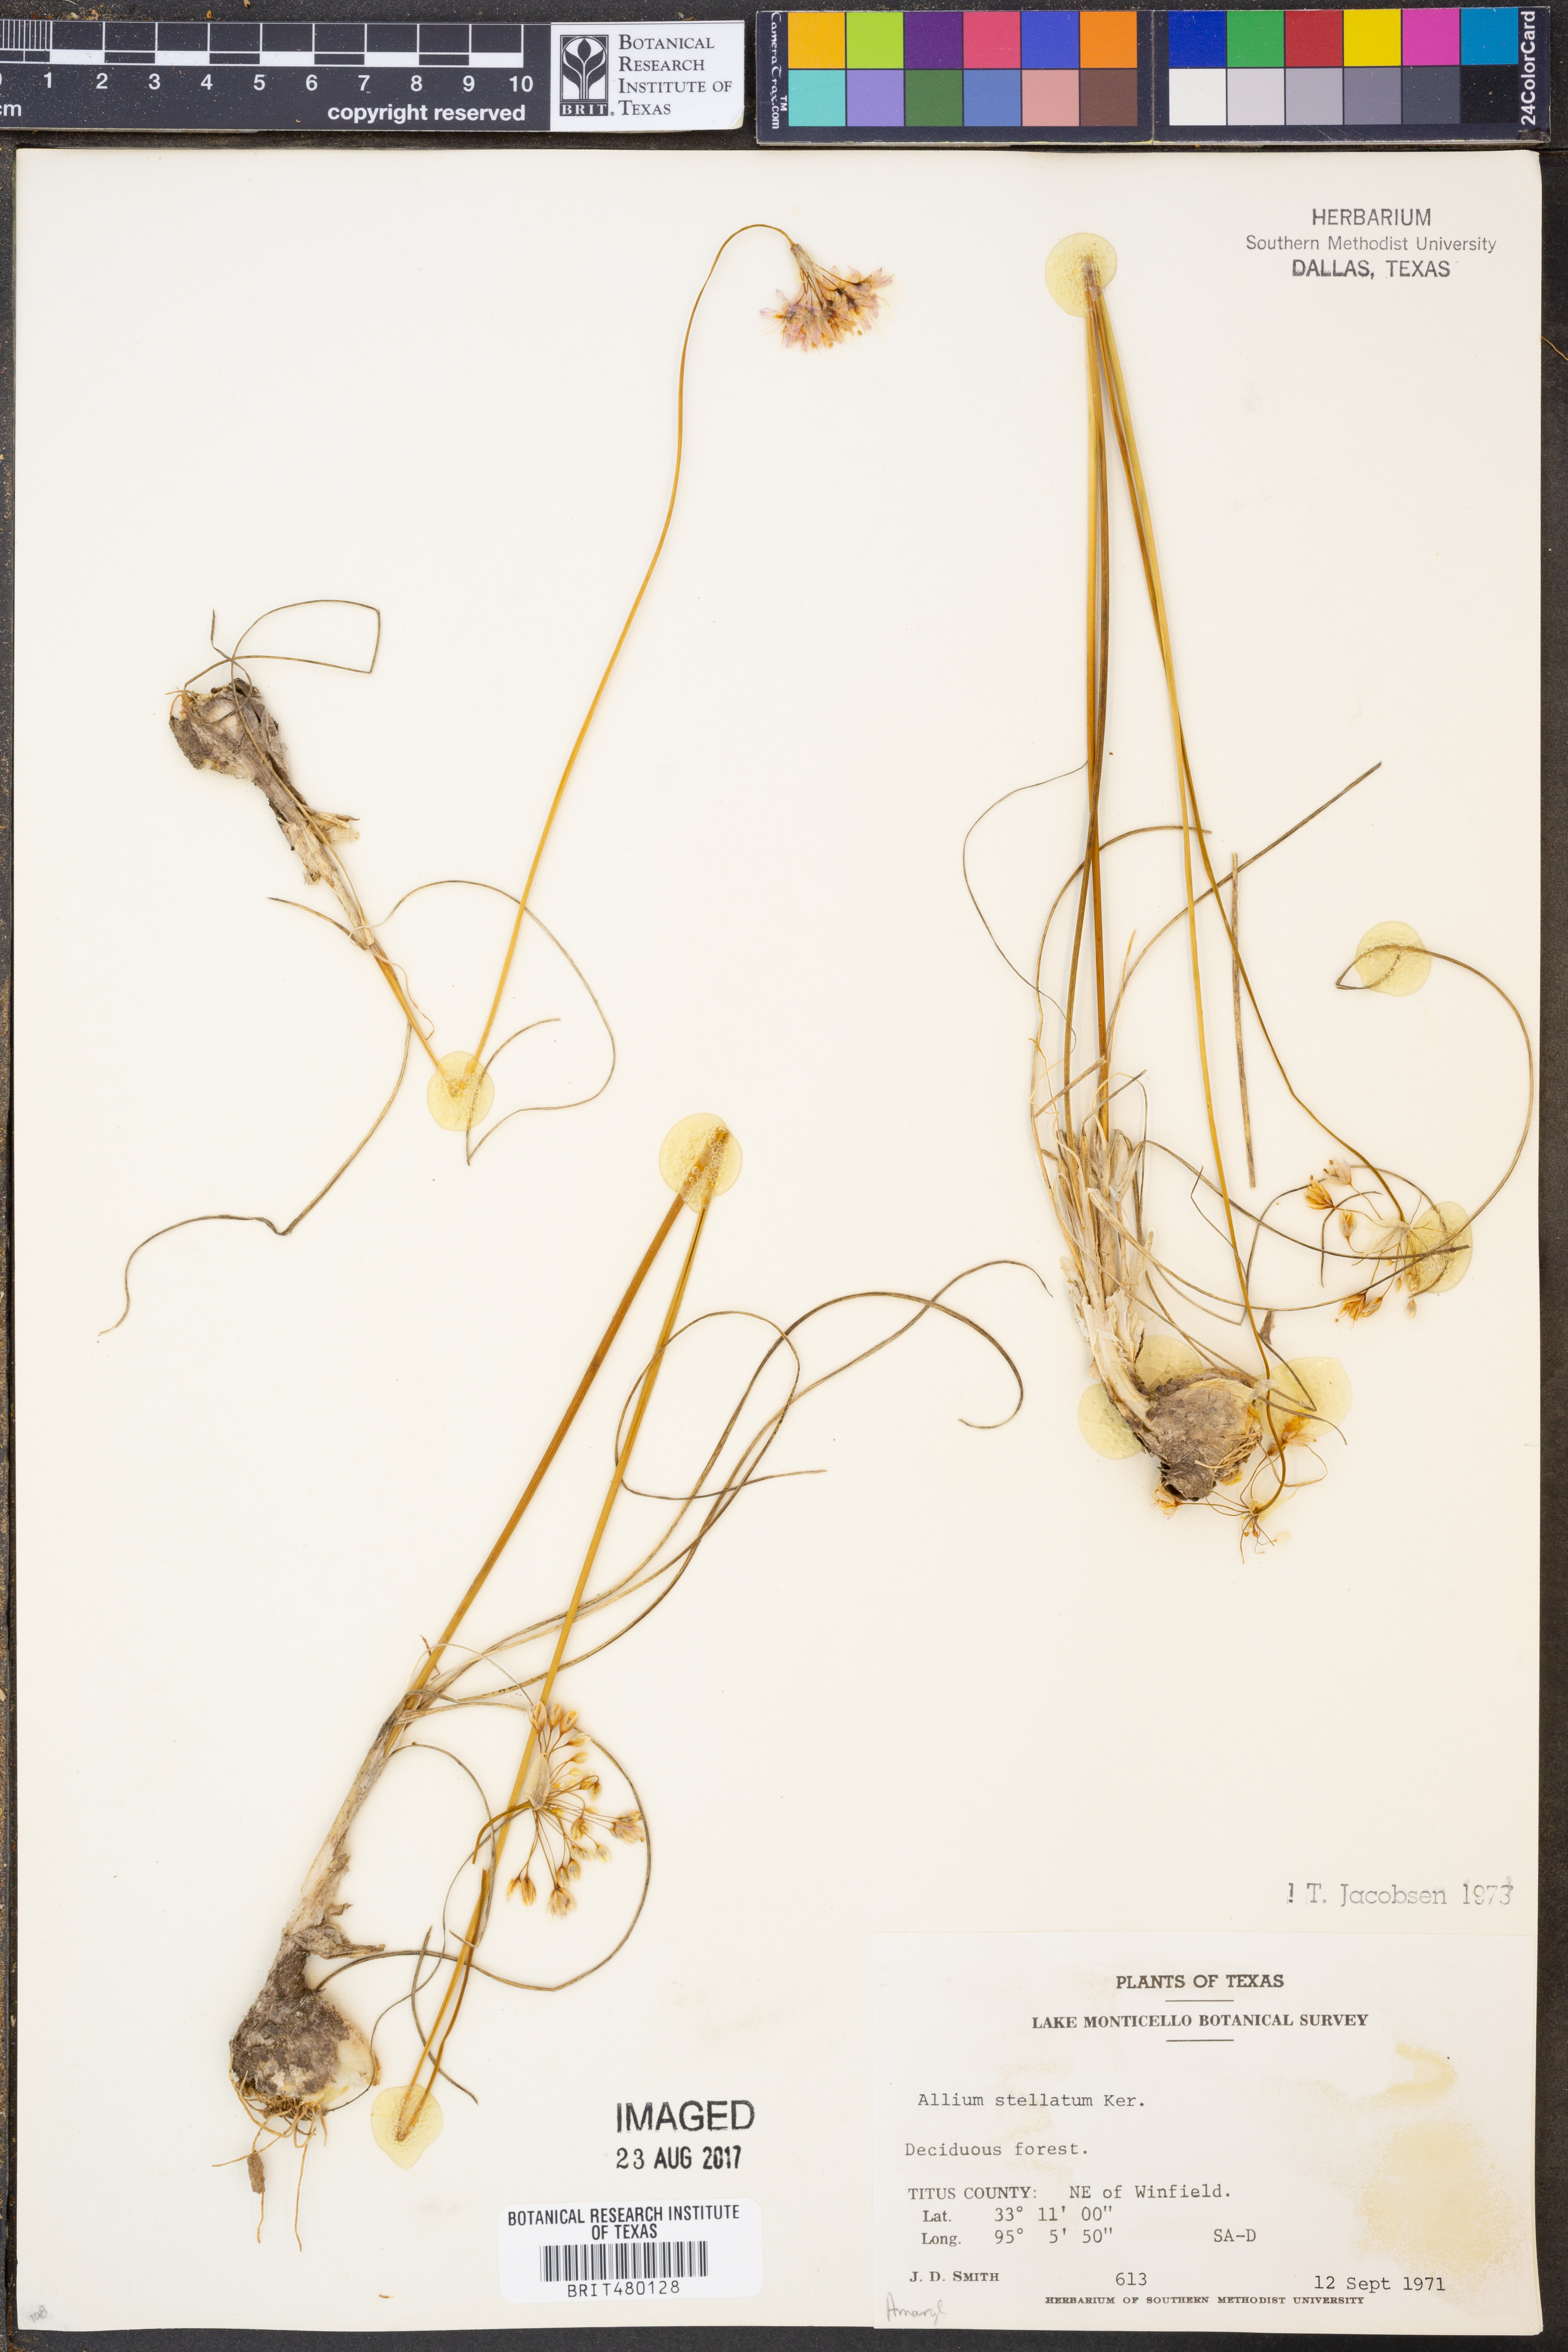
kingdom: Plantae
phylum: Tracheophyta
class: Liliopsida
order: Asparagales
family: Amaryllidaceae
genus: Allium
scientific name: Allium stellatum
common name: Autumn onion
